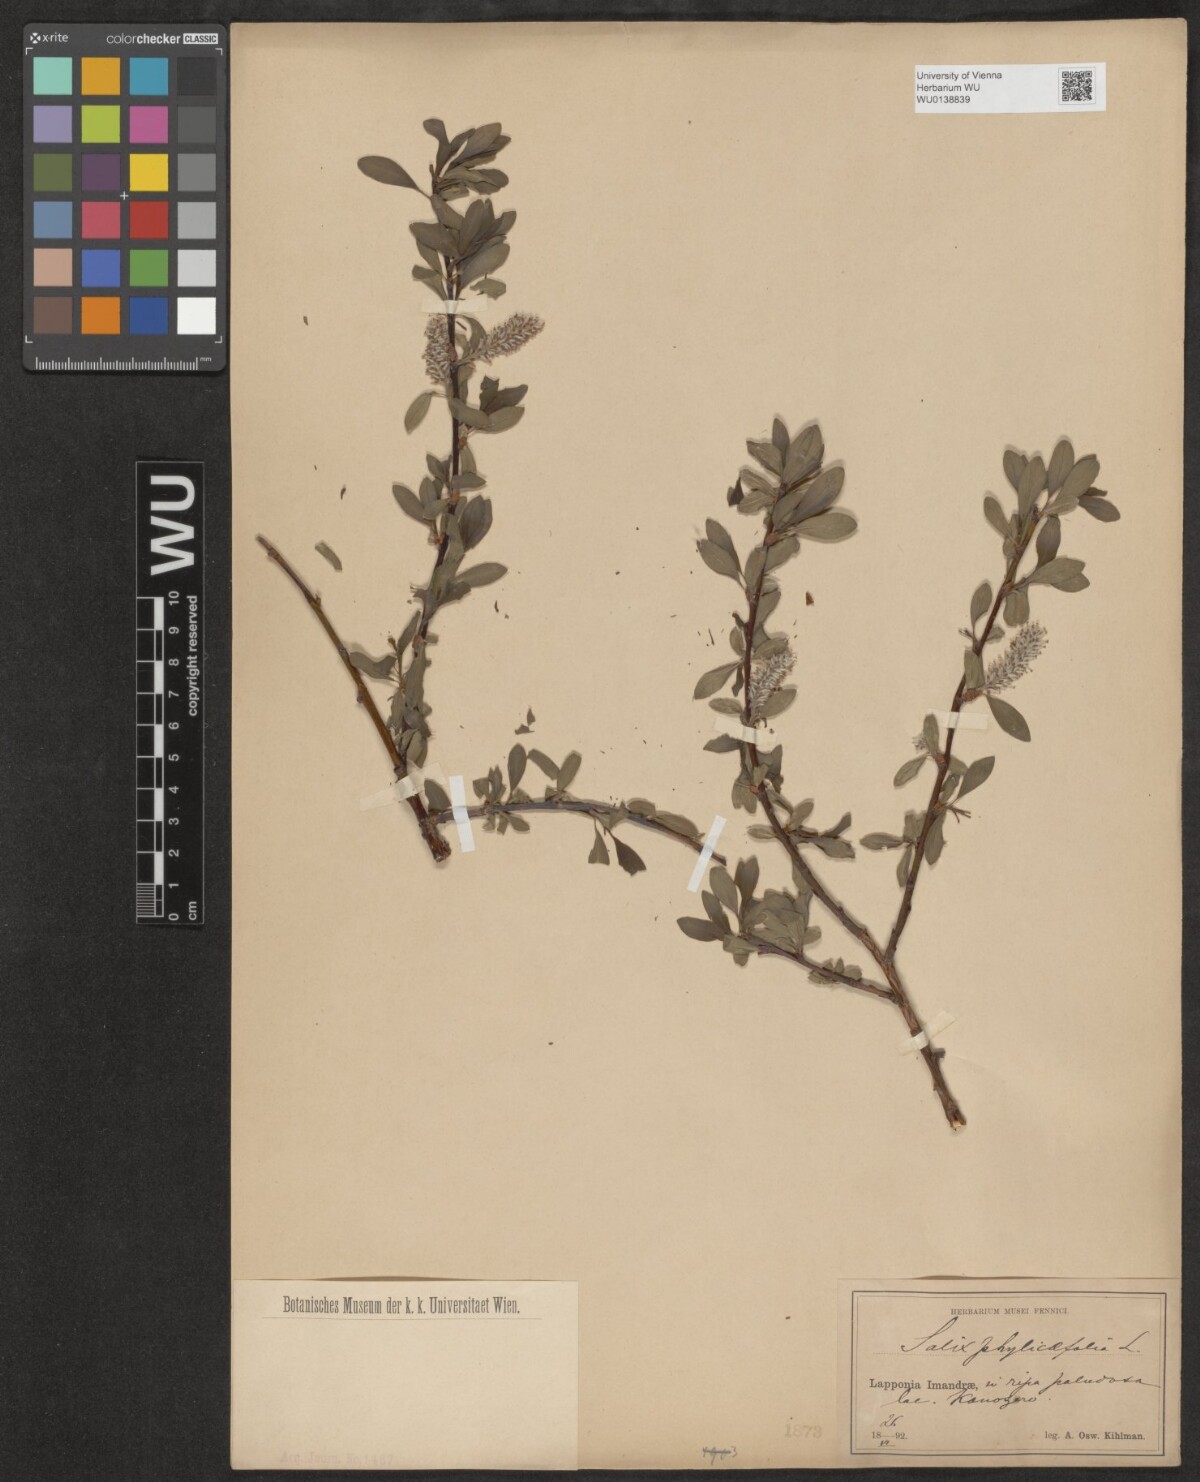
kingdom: Plantae
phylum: Tracheophyta
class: Magnoliopsida
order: Malpighiales
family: Salicaceae
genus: Salix
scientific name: Salix phylicifolia
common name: Tea-leaved willow
